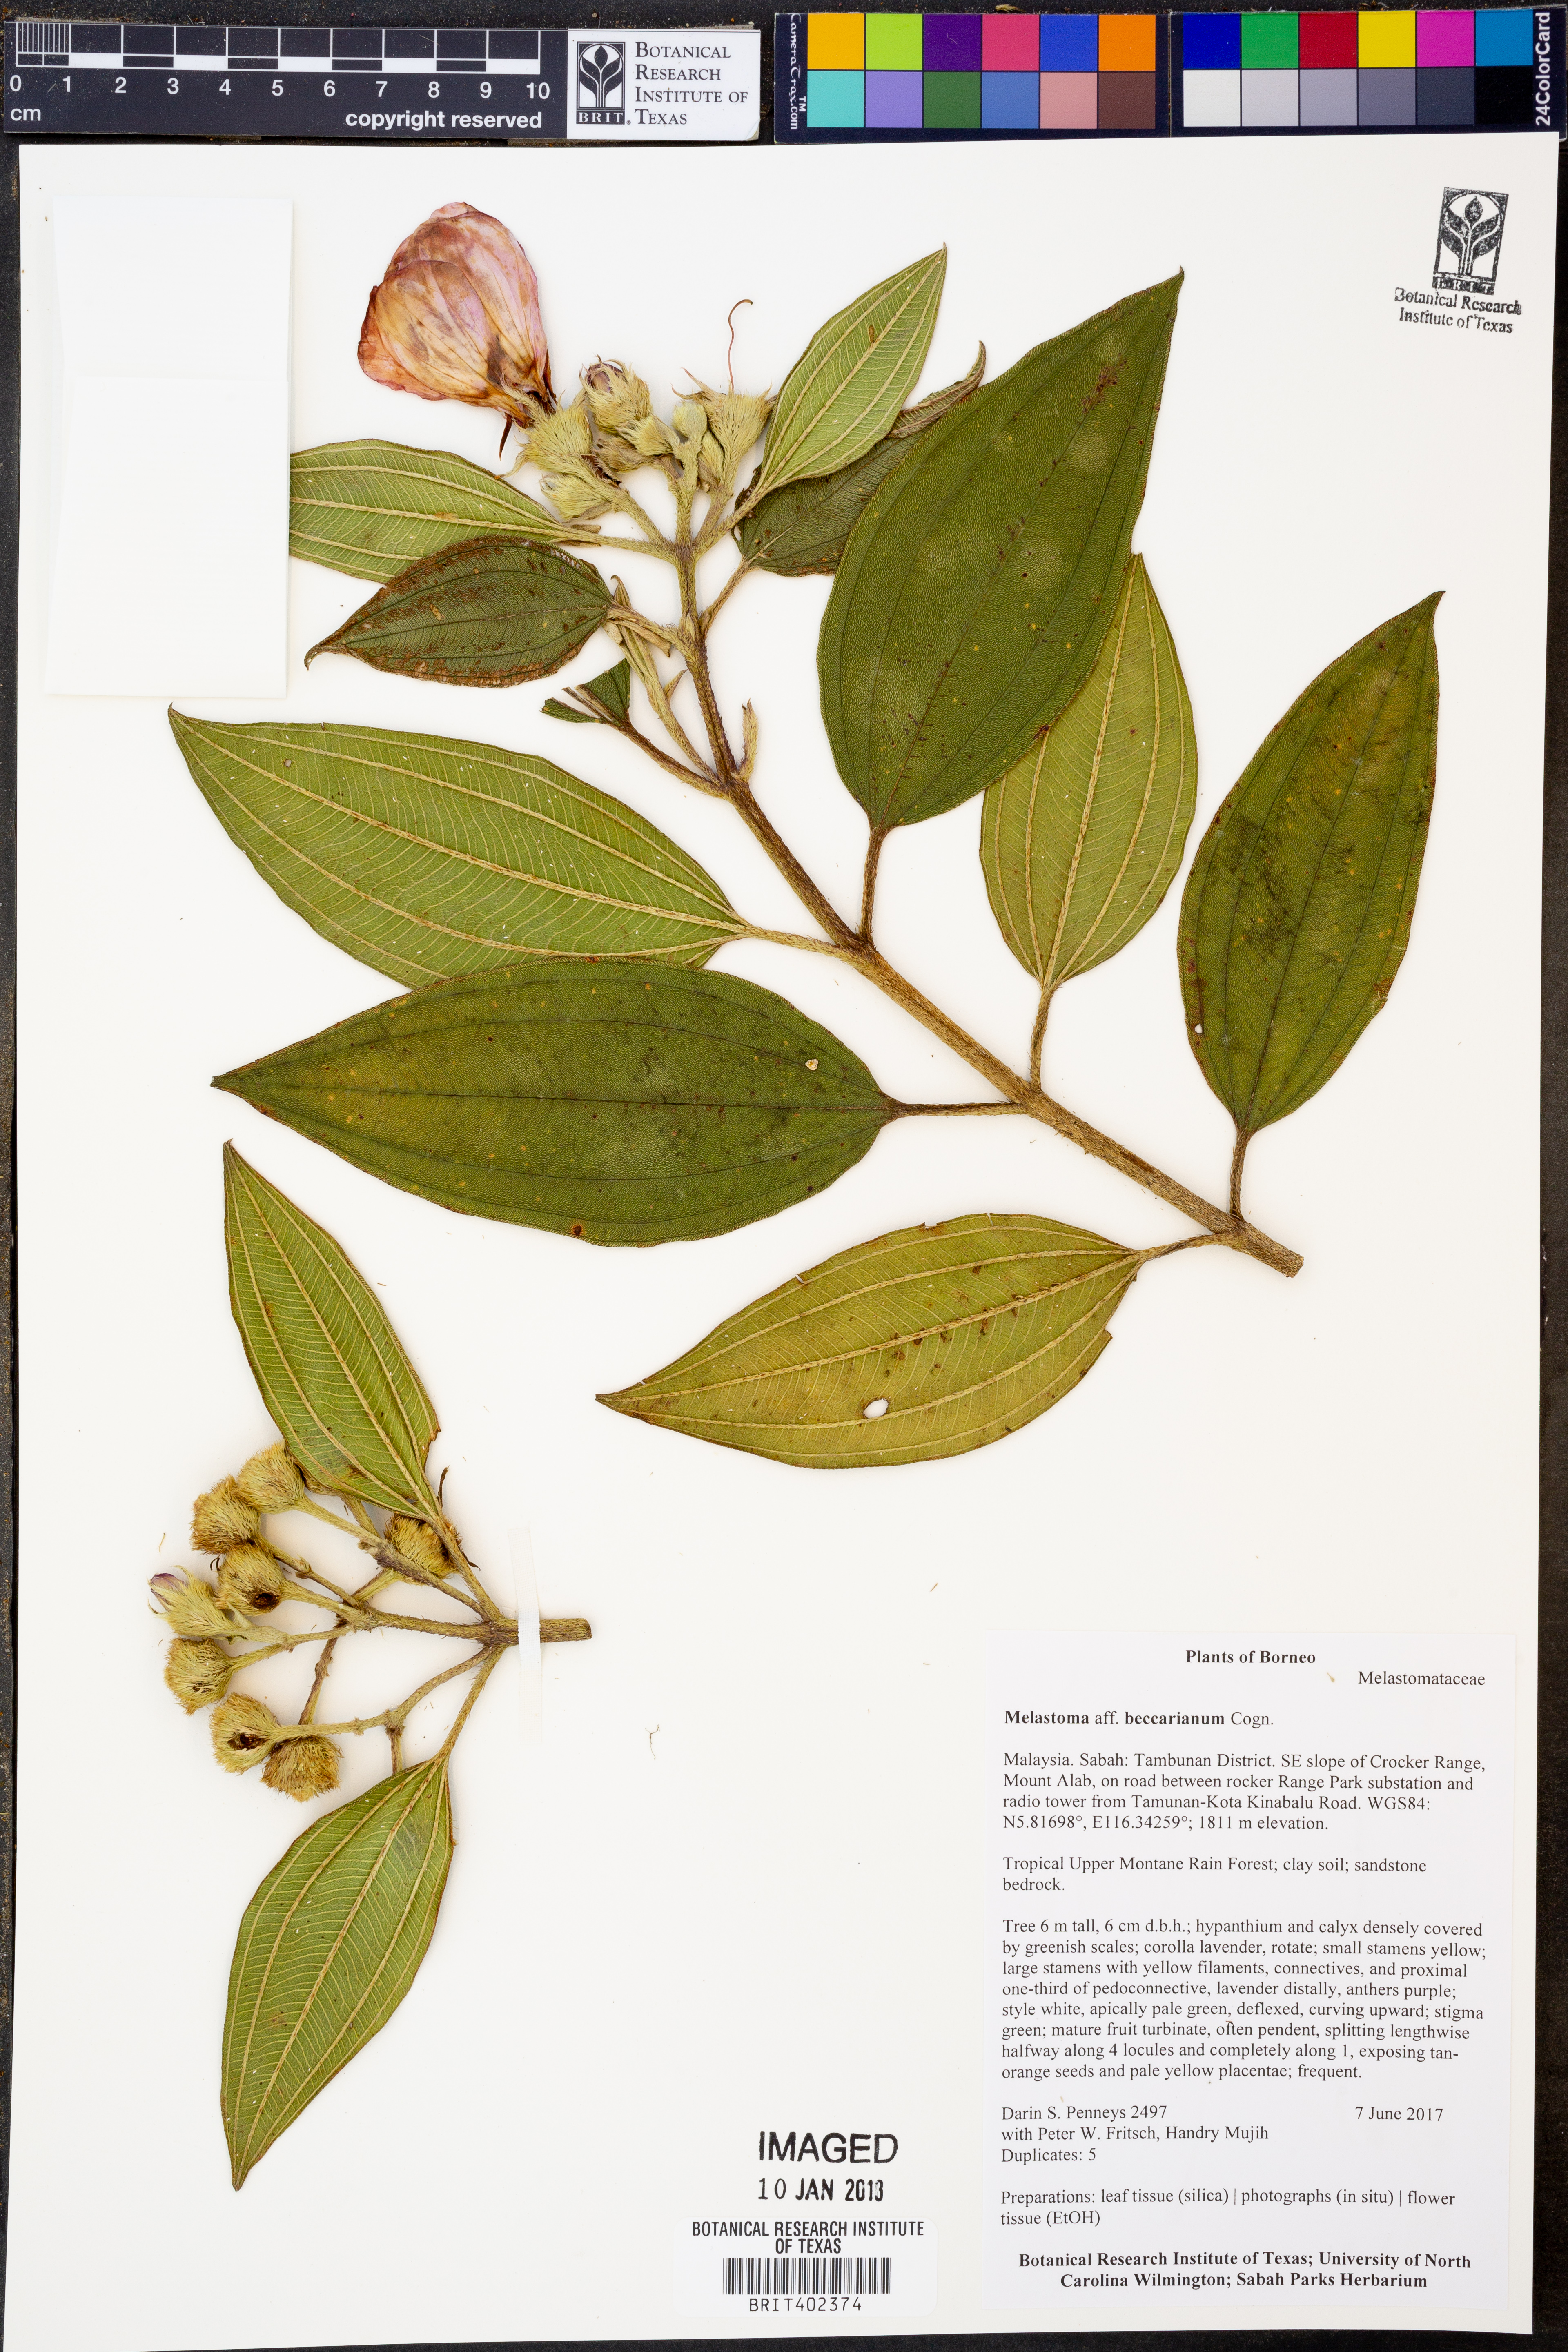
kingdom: Plantae
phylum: Tracheophyta
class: Magnoliopsida
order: Myrtales
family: Melastomataceae
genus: Melastoma
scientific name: Melastoma beccarianum
